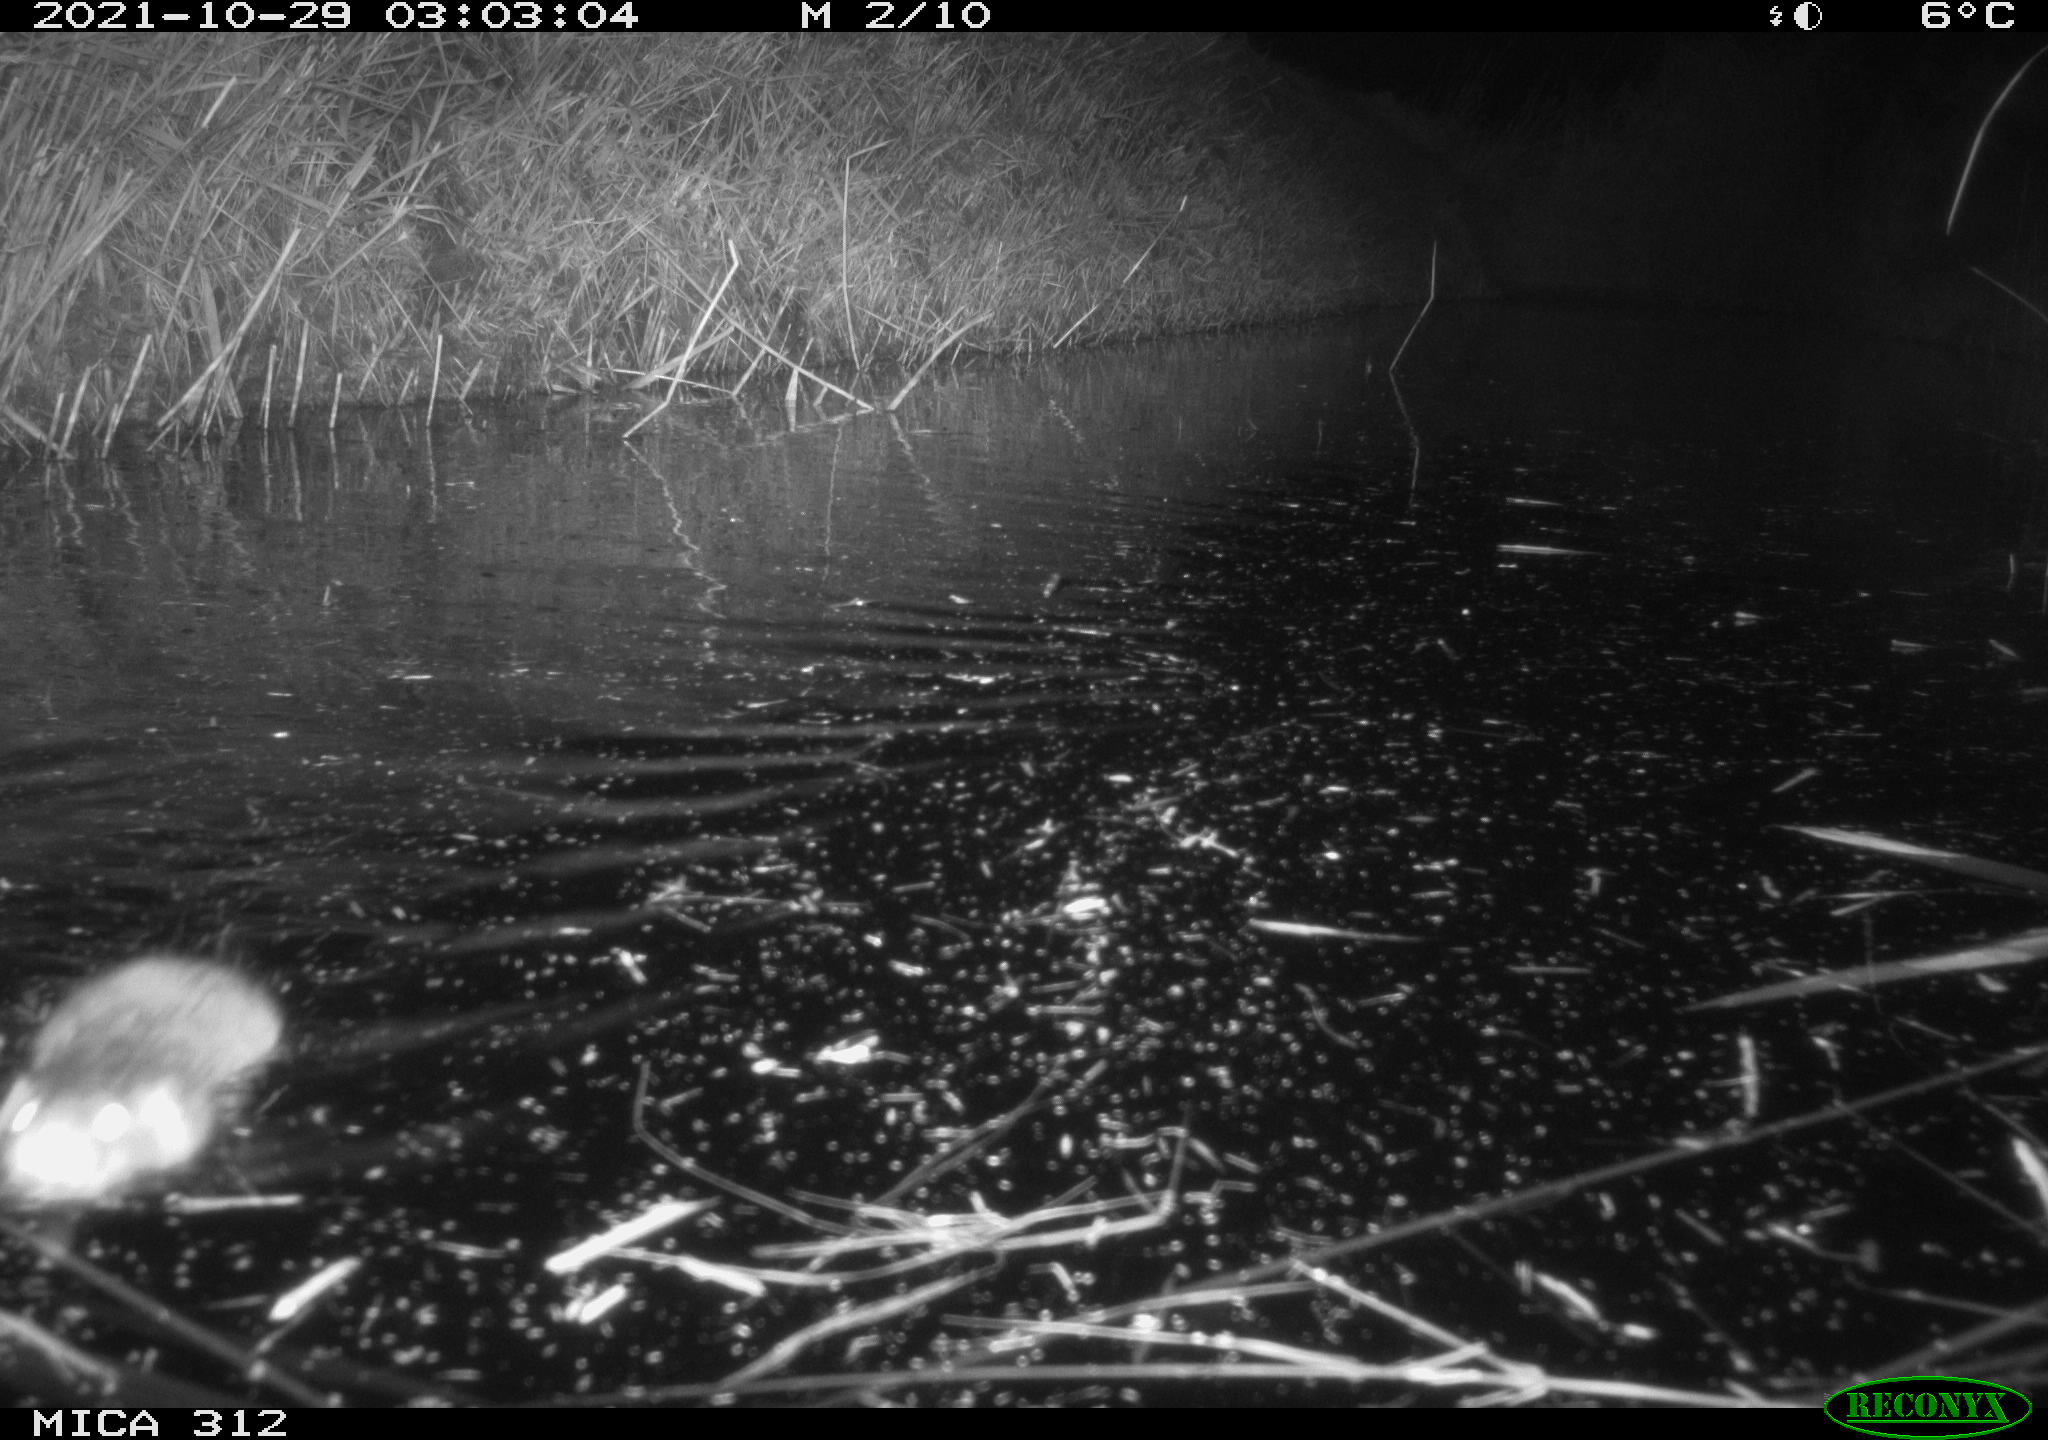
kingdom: Animalia
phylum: Chordata
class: Mammalia
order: Rodentia
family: Cricetidae
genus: Ondatra
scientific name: Ondatra zibethicus
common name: Muskrat
